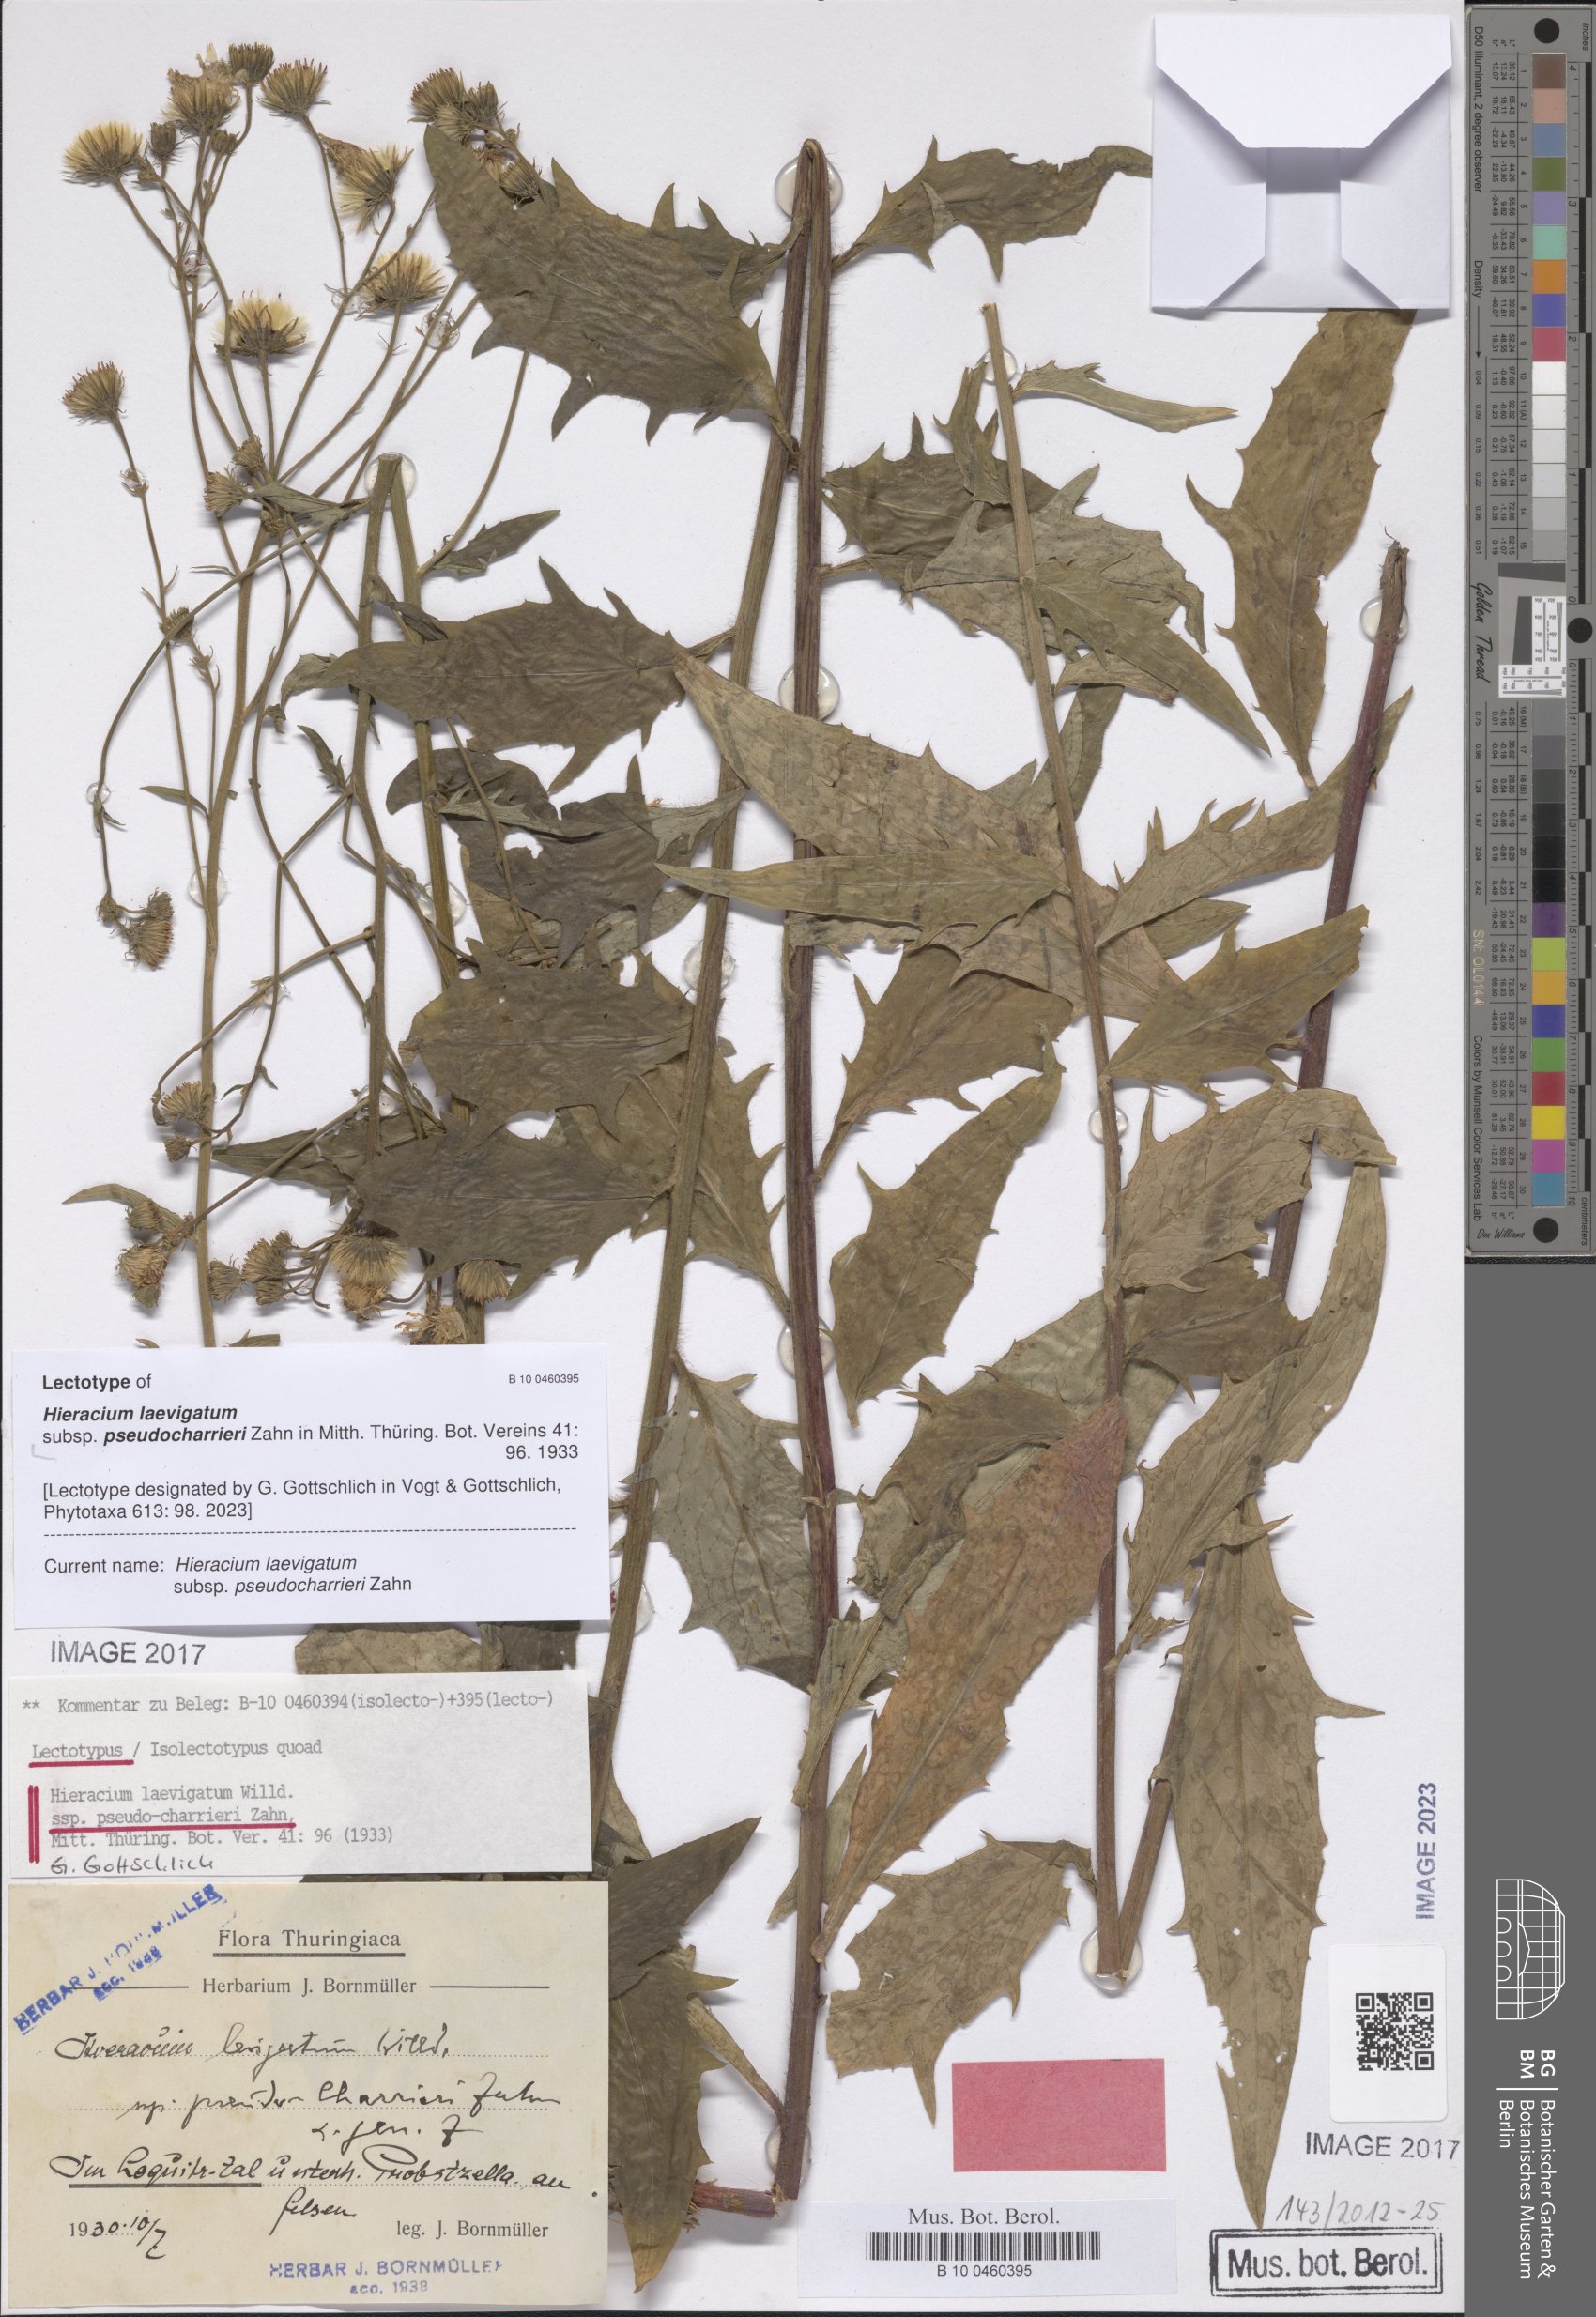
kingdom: Plantae
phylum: Tracheophyta
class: Magnoliopsida
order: Asterales
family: Asteraceae
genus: Hieracium
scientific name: Hieracium laevigatum
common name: Smooth hawkweed
